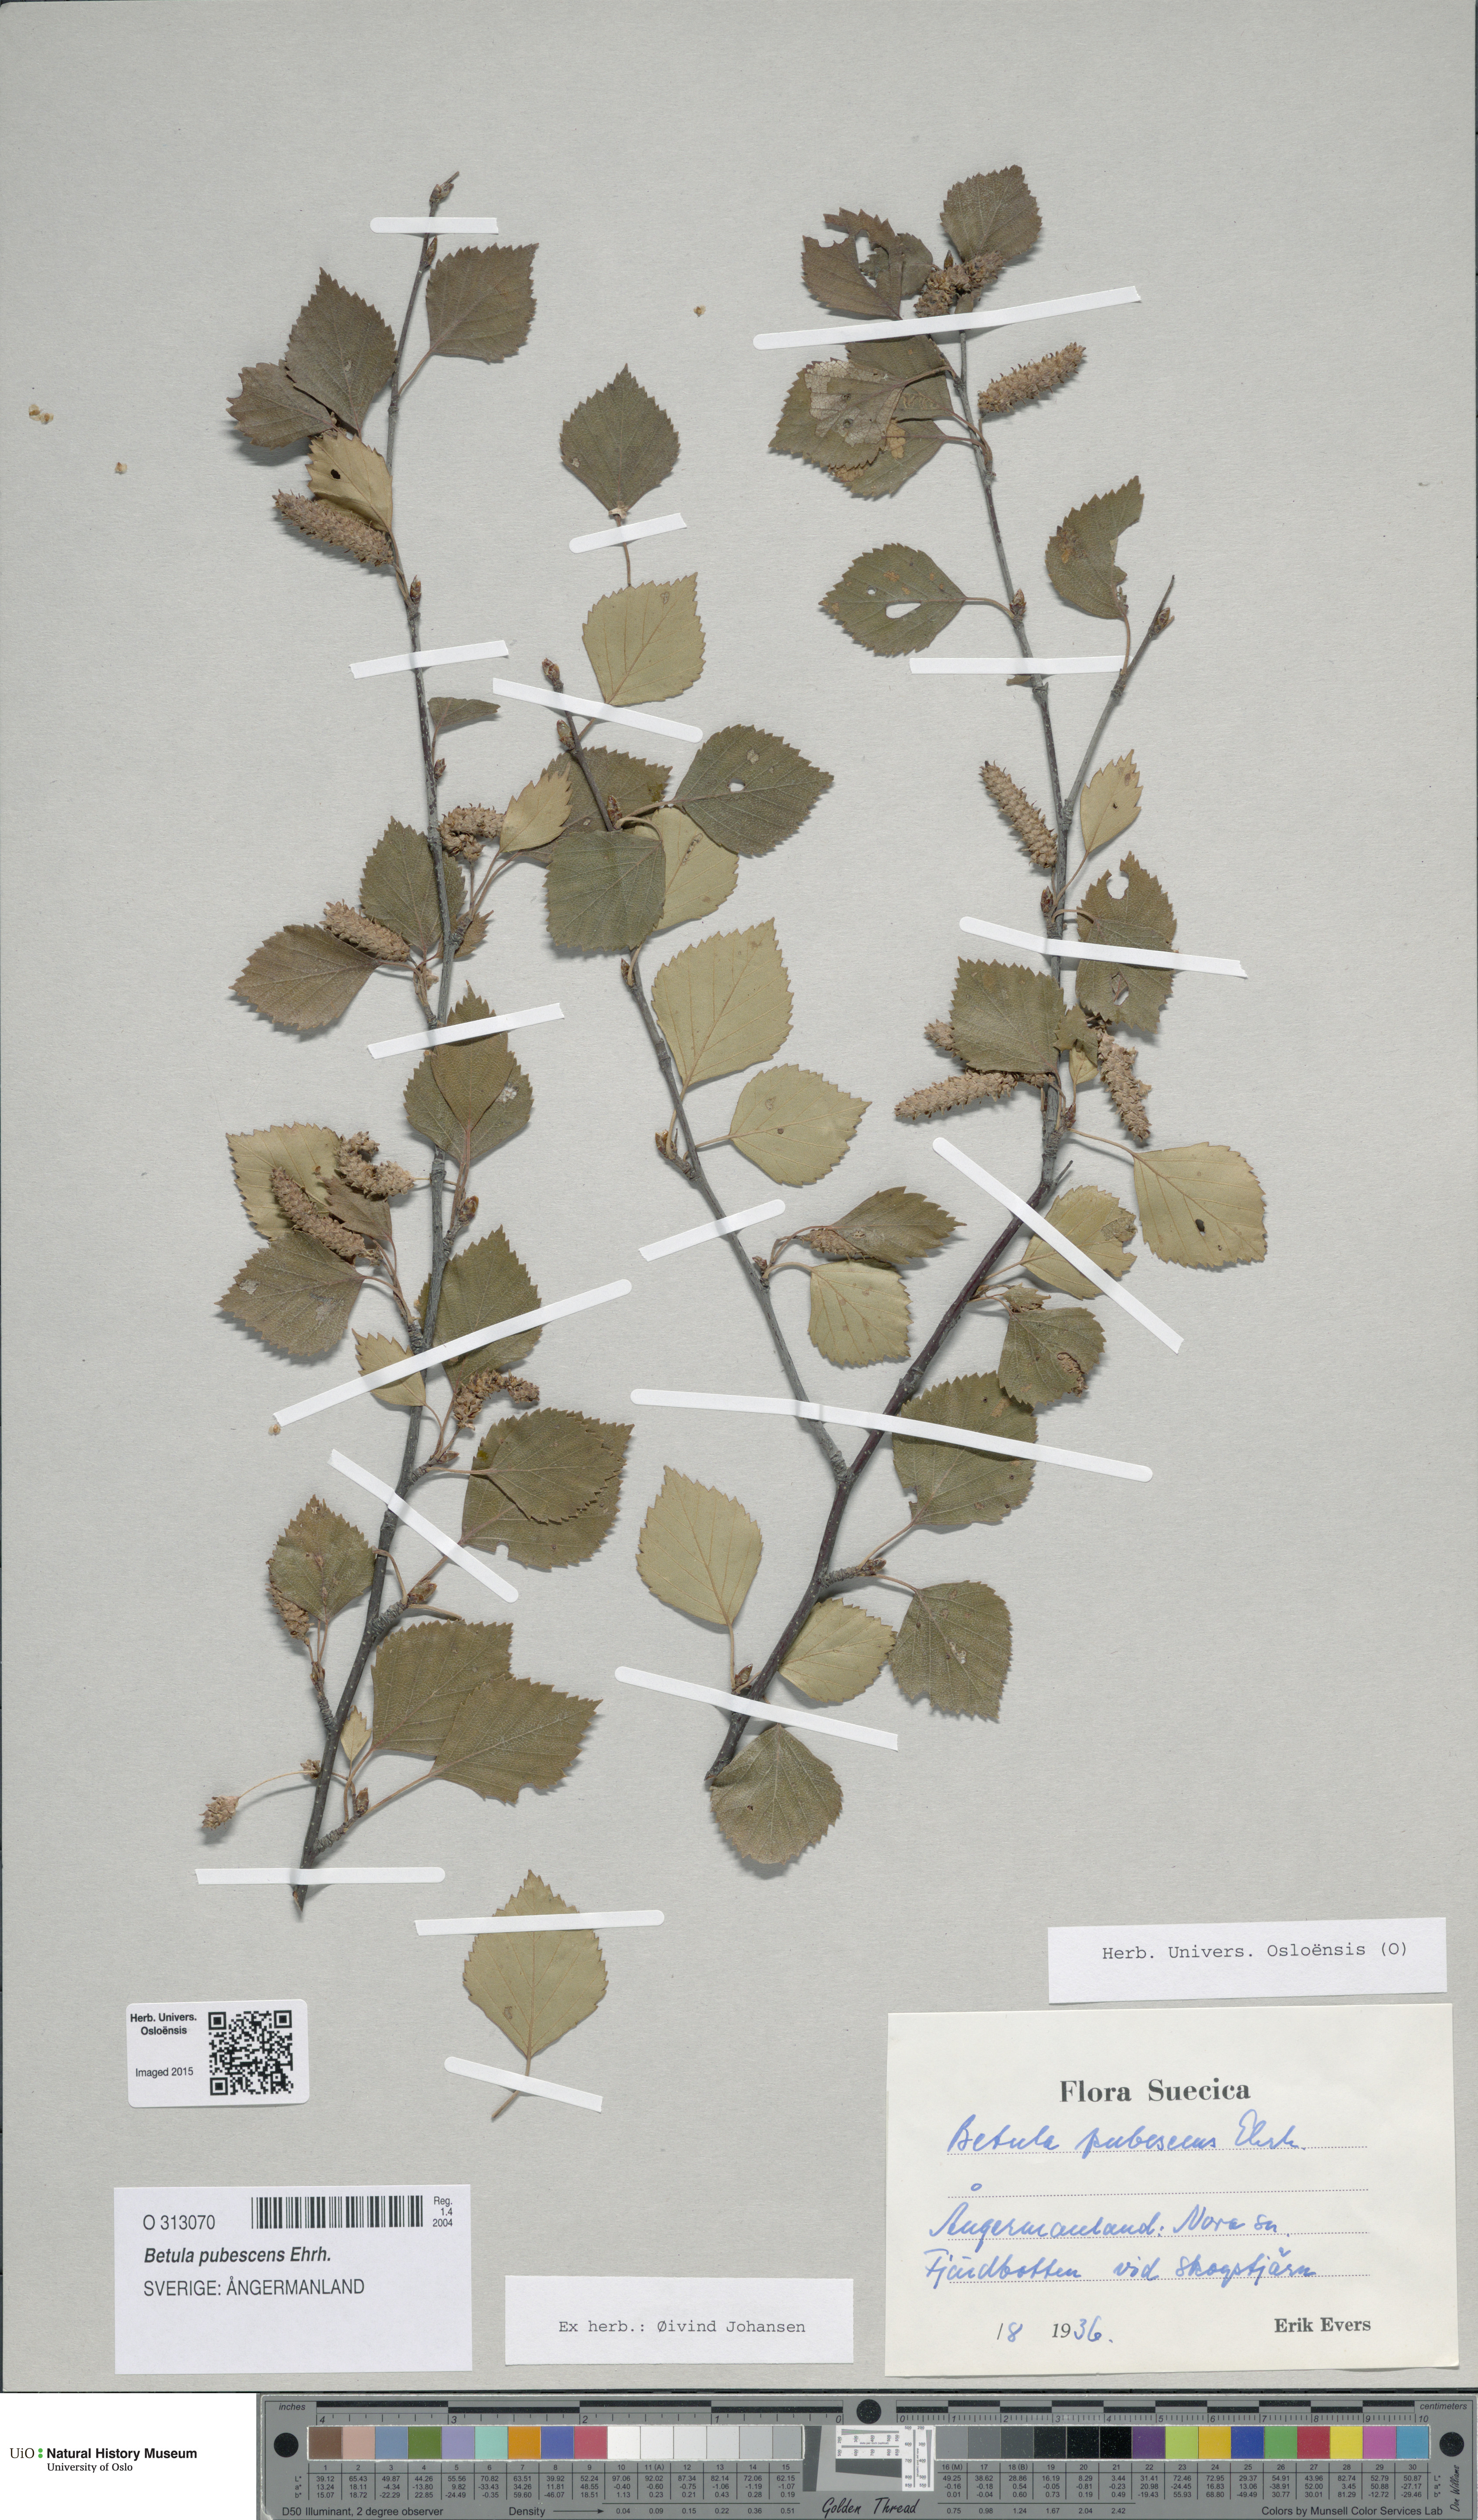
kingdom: Plantae
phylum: Tracheophyta
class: Magnoliopsida
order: Fagales
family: Betulaceae
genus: Betula
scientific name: Betula pubescens
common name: Downy birch
